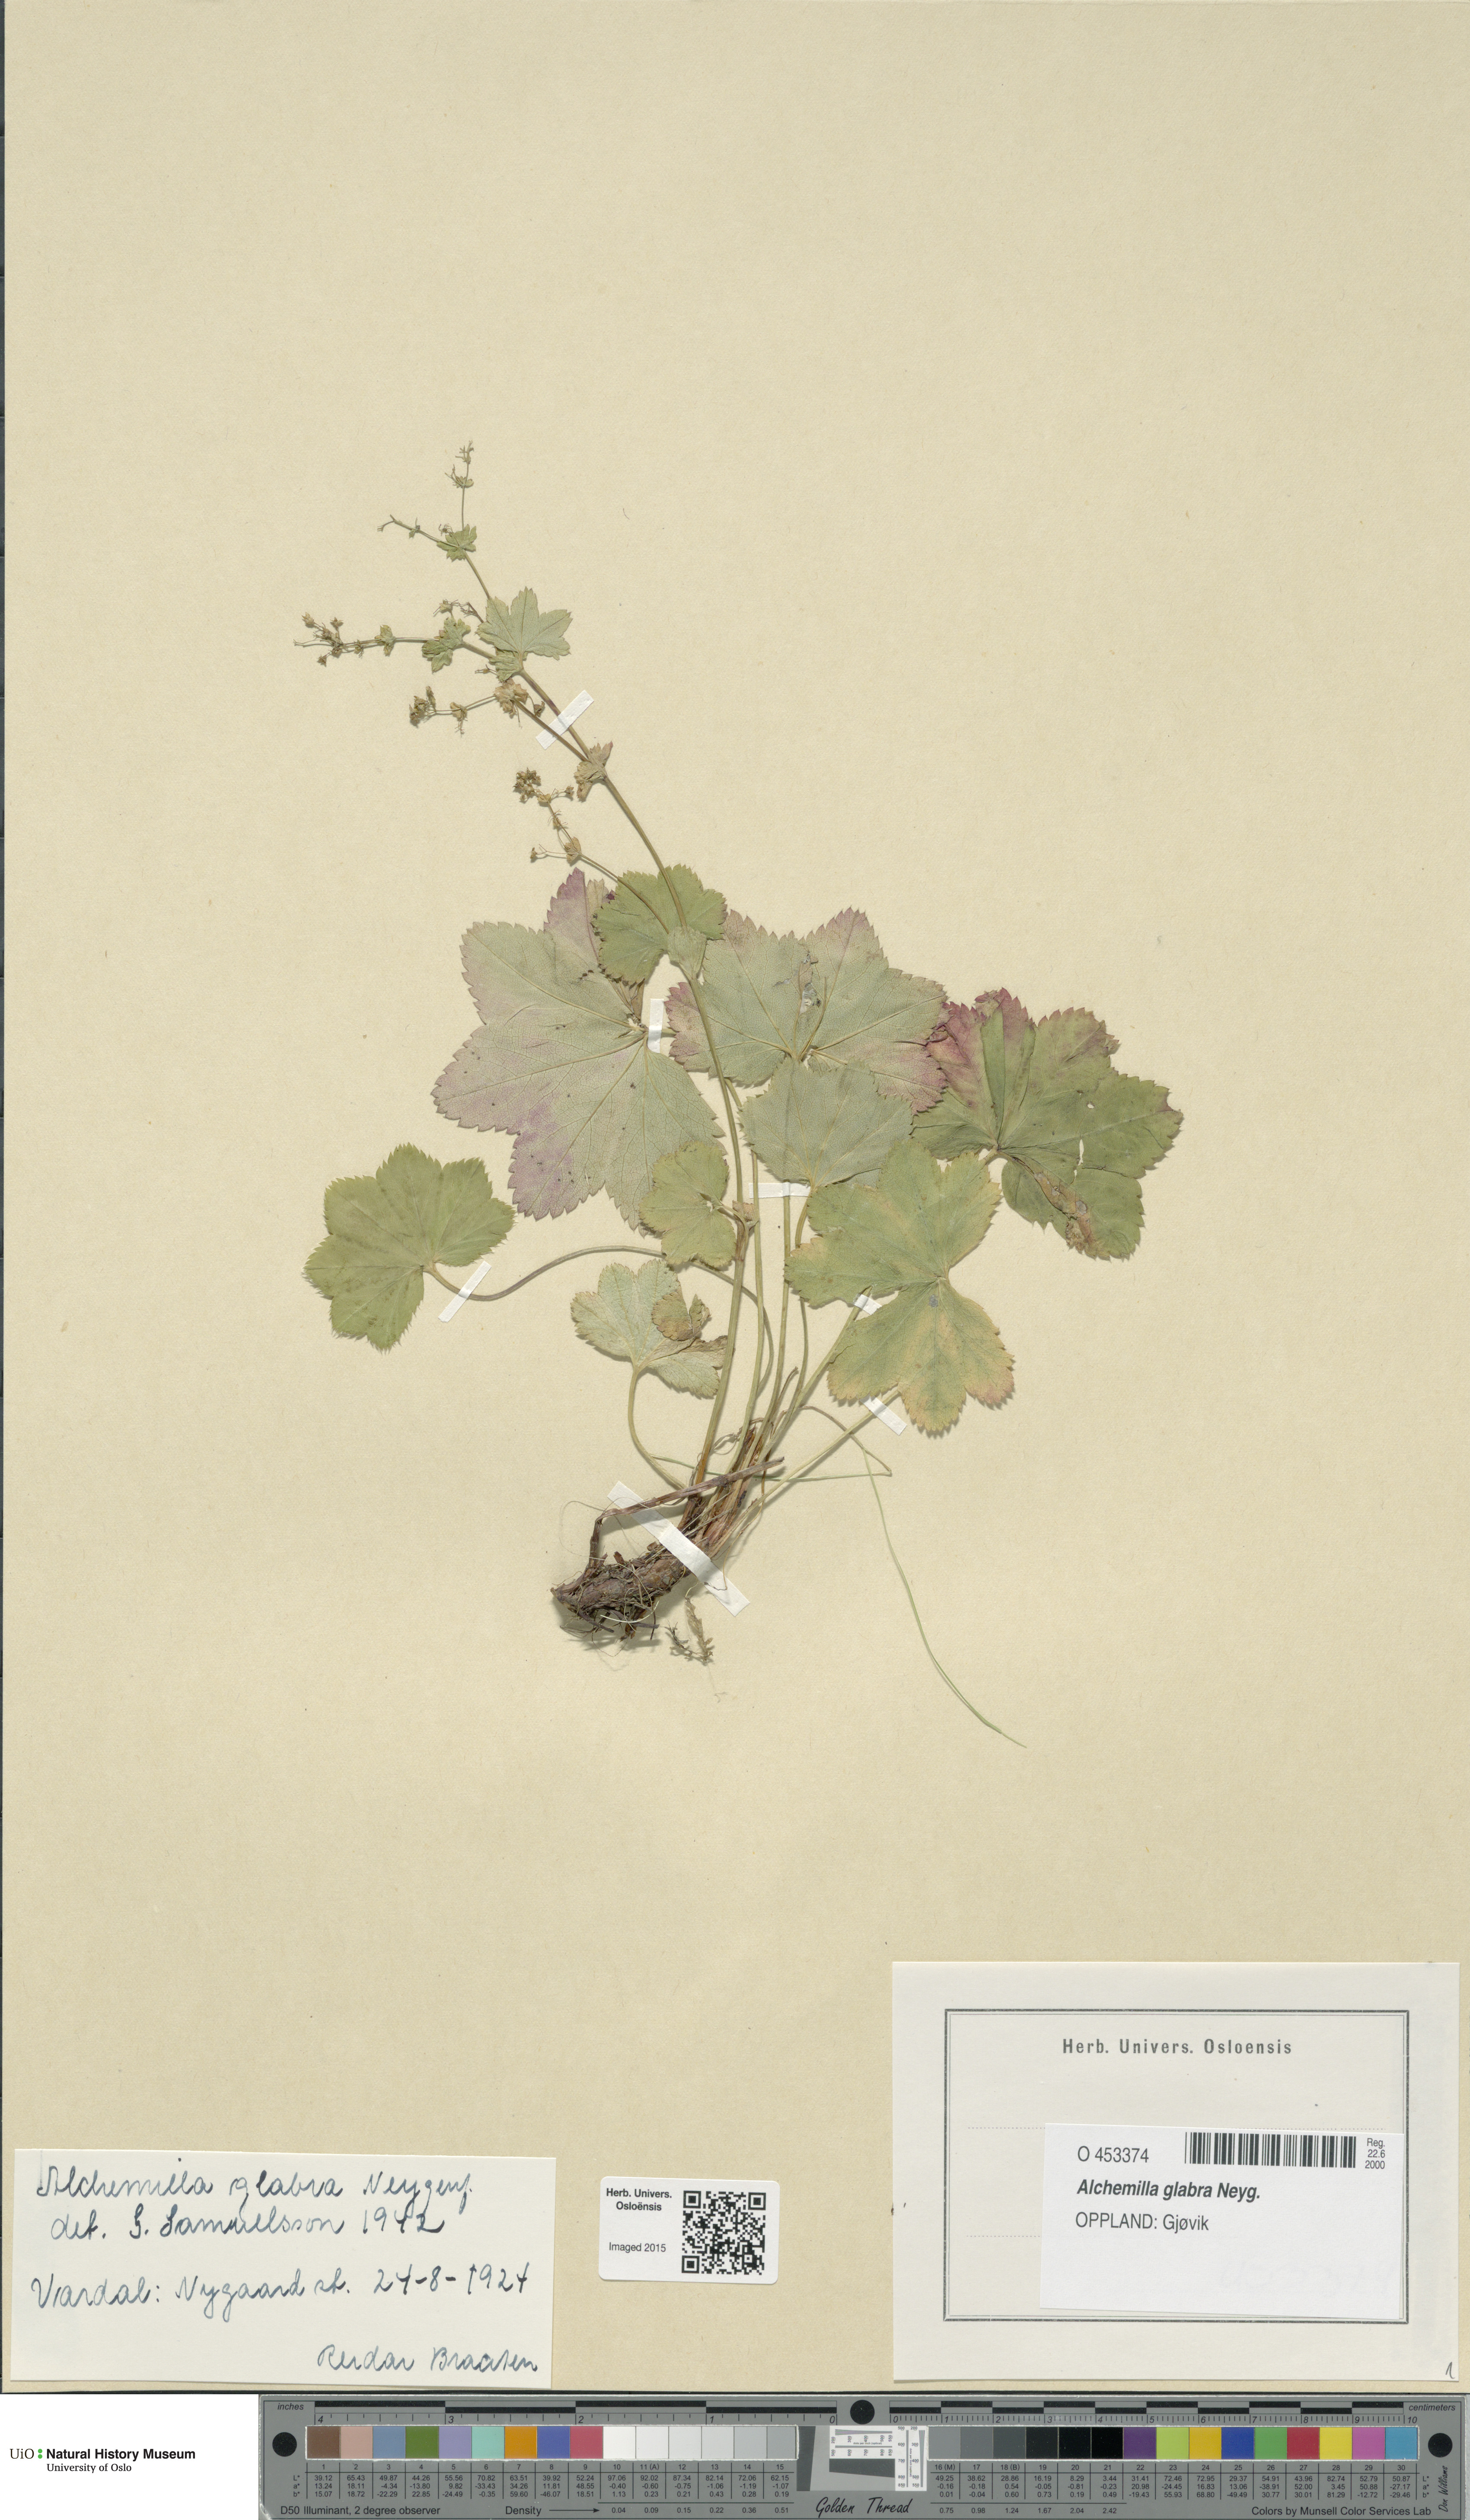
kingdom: Plantae
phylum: Tracheophyta
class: Magnoliopsida
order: Rosales
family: Rosaceae
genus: Alchemilla
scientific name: Alchemilla glabra
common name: Smooth lady's-mantle
